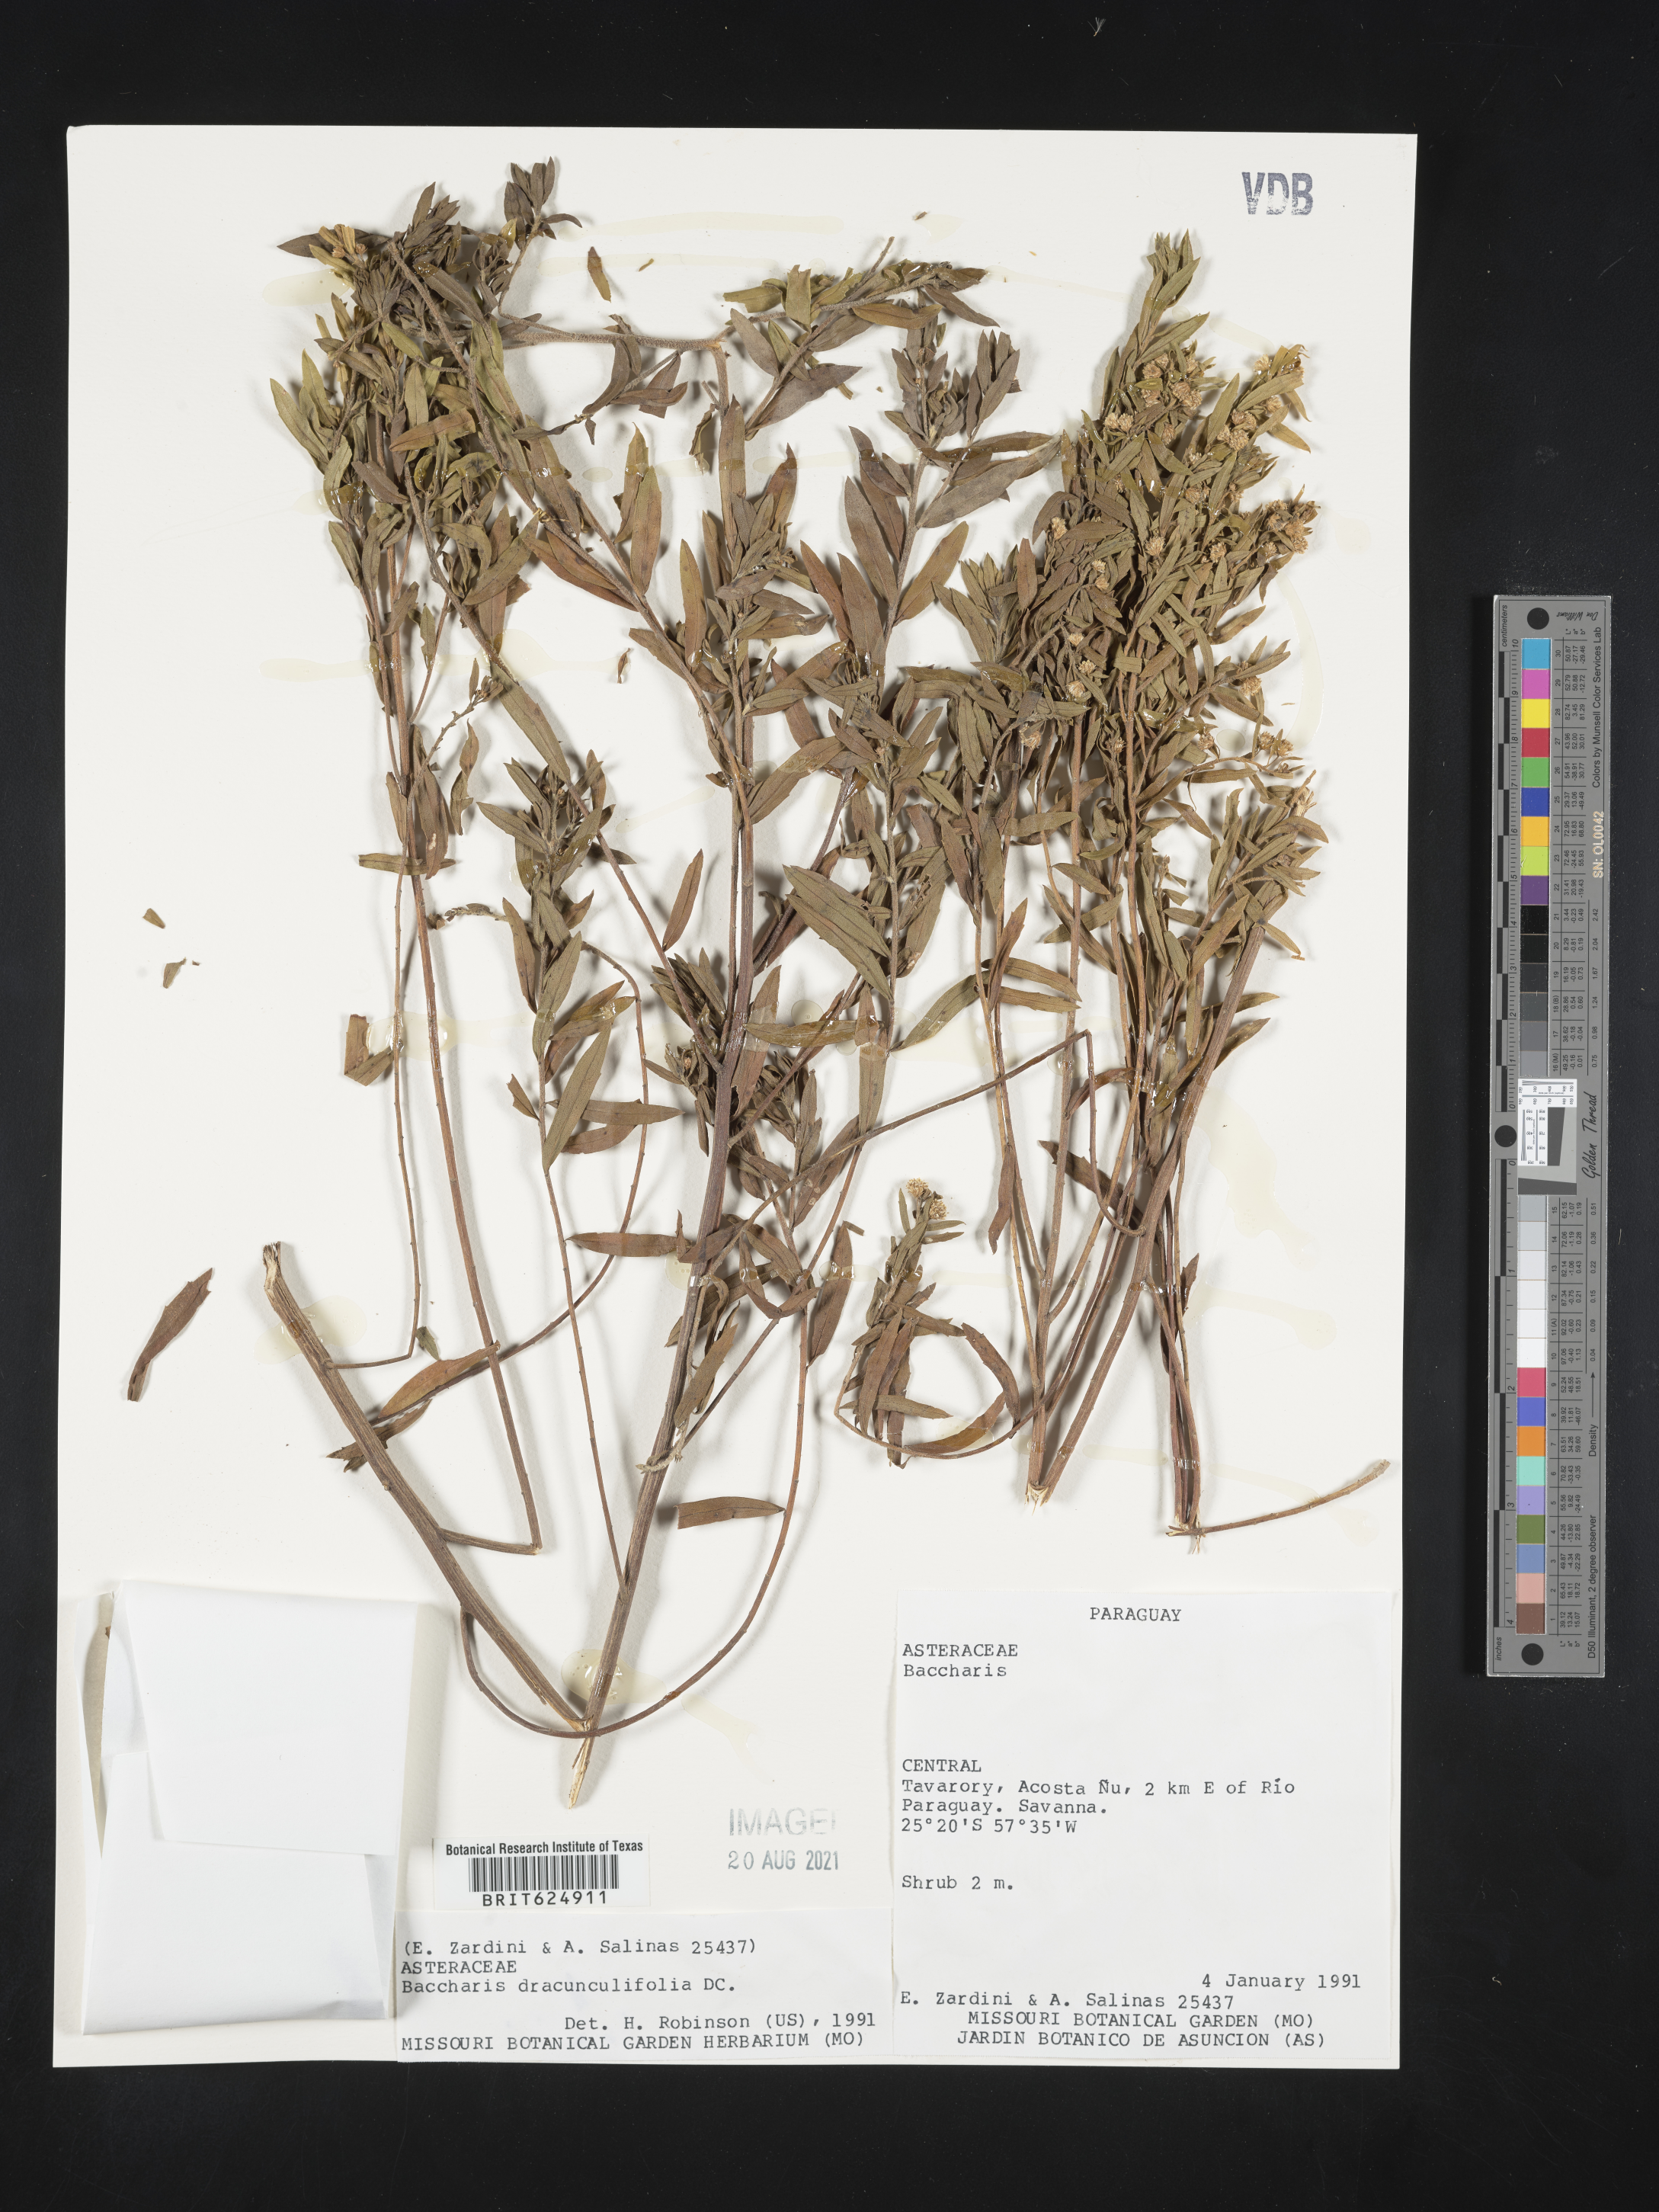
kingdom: Plantae
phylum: Tracheophyta
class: Magnoliopsida
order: Asterales
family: Asteraceae
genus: Baccharis
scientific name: Baccharis dracunculifolia
